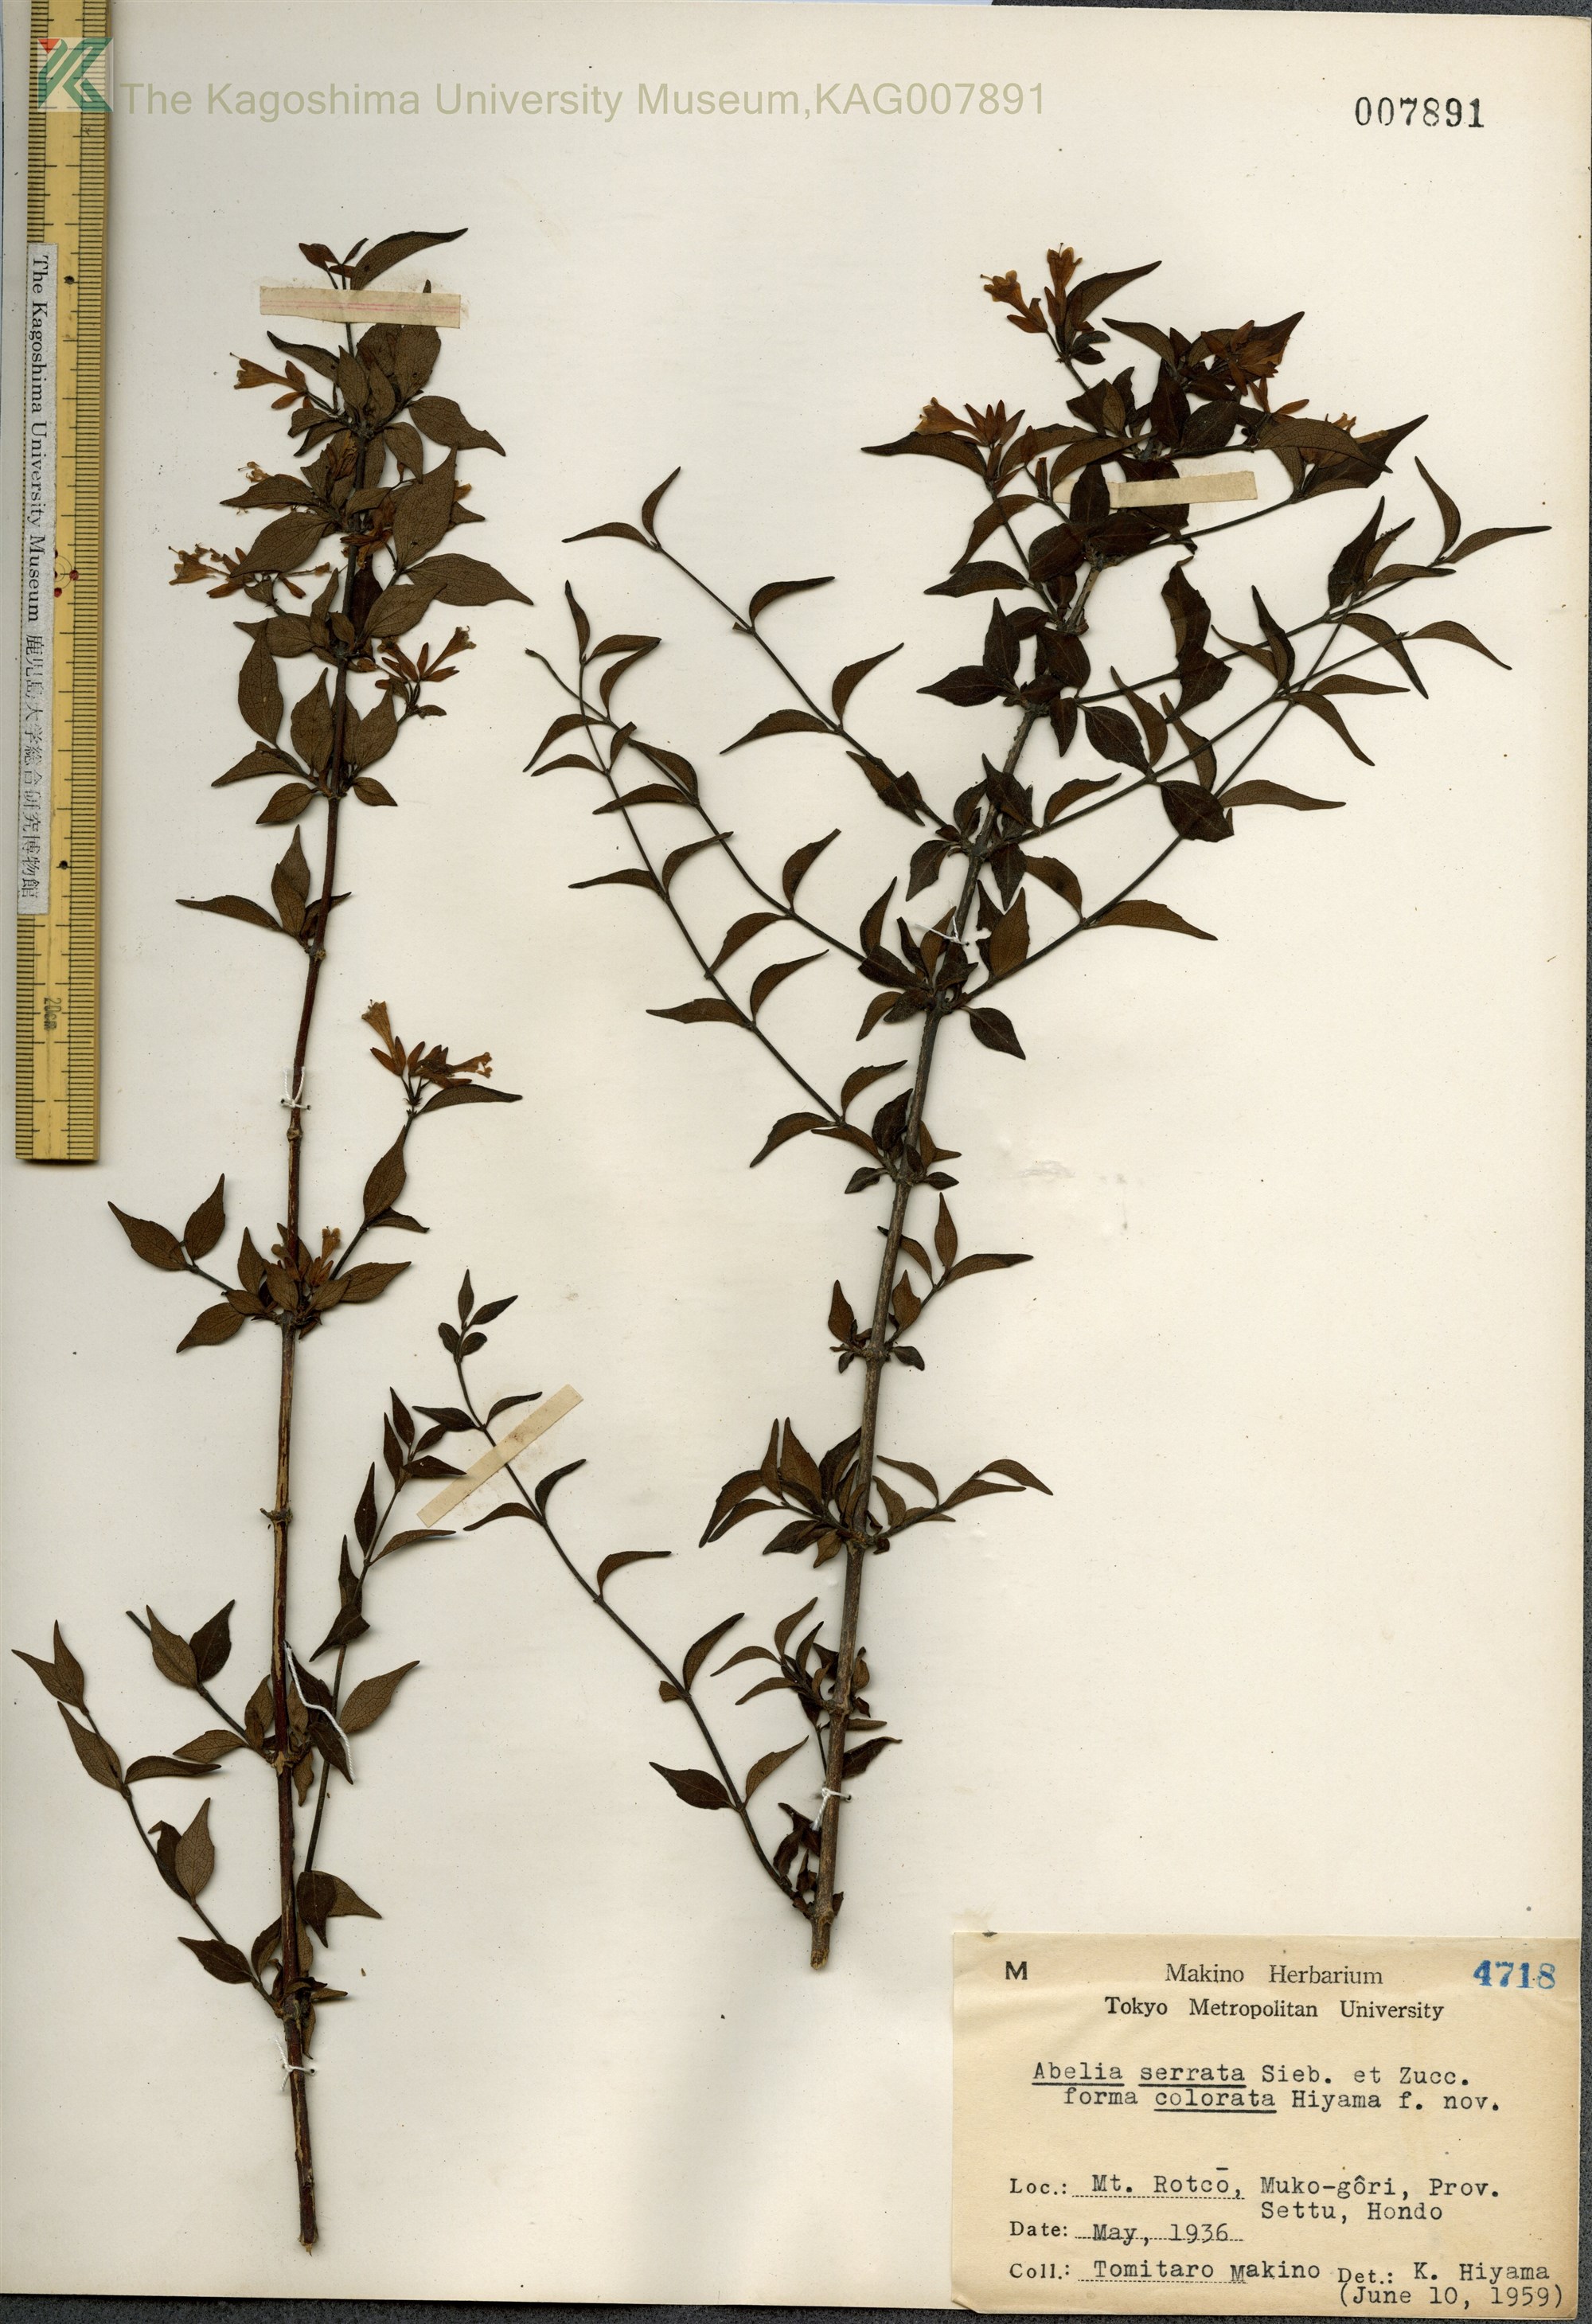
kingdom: Plantae
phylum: Tracheophyta
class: Magnoliopsida
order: Dipsacales
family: Caprifoliaceae
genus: Diabelia
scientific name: Diabelia serrata
